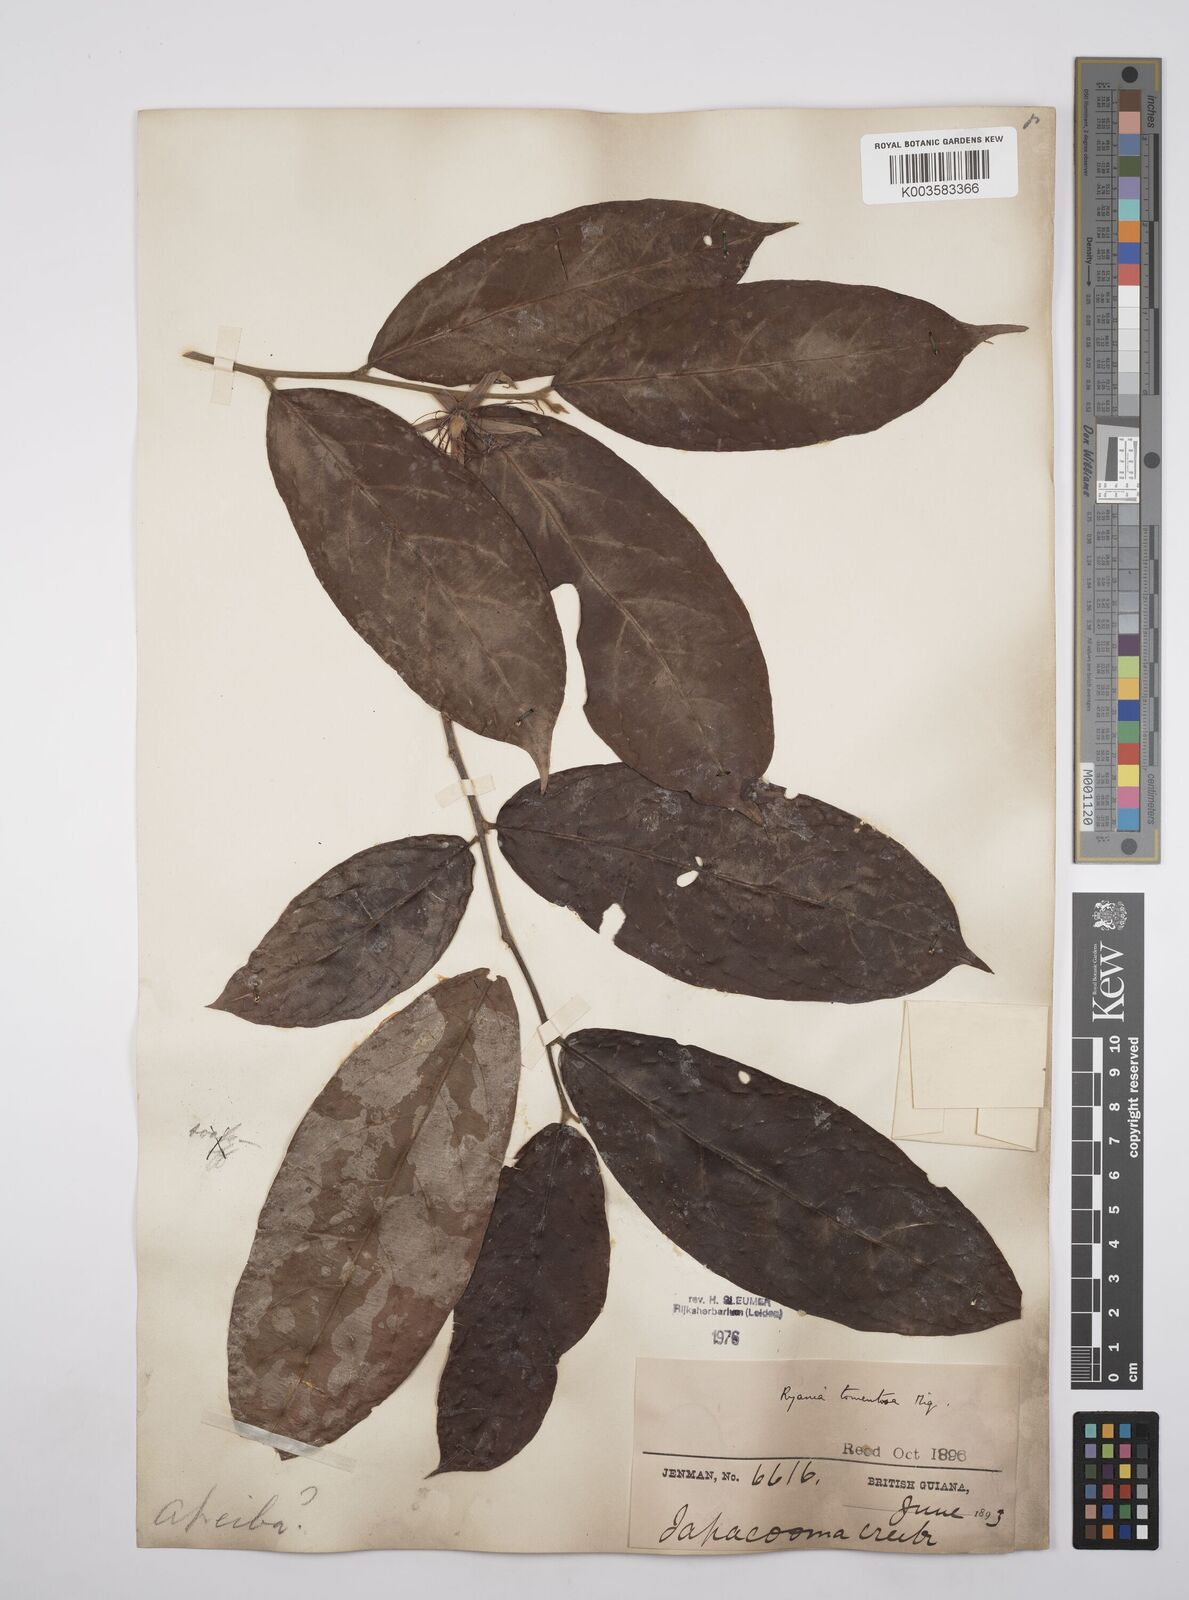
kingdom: Plantae
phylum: Tracheophyta
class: Magnoliopsida
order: Malpighiales
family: Salicaceae
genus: Ryania
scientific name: Ryania speciosa
